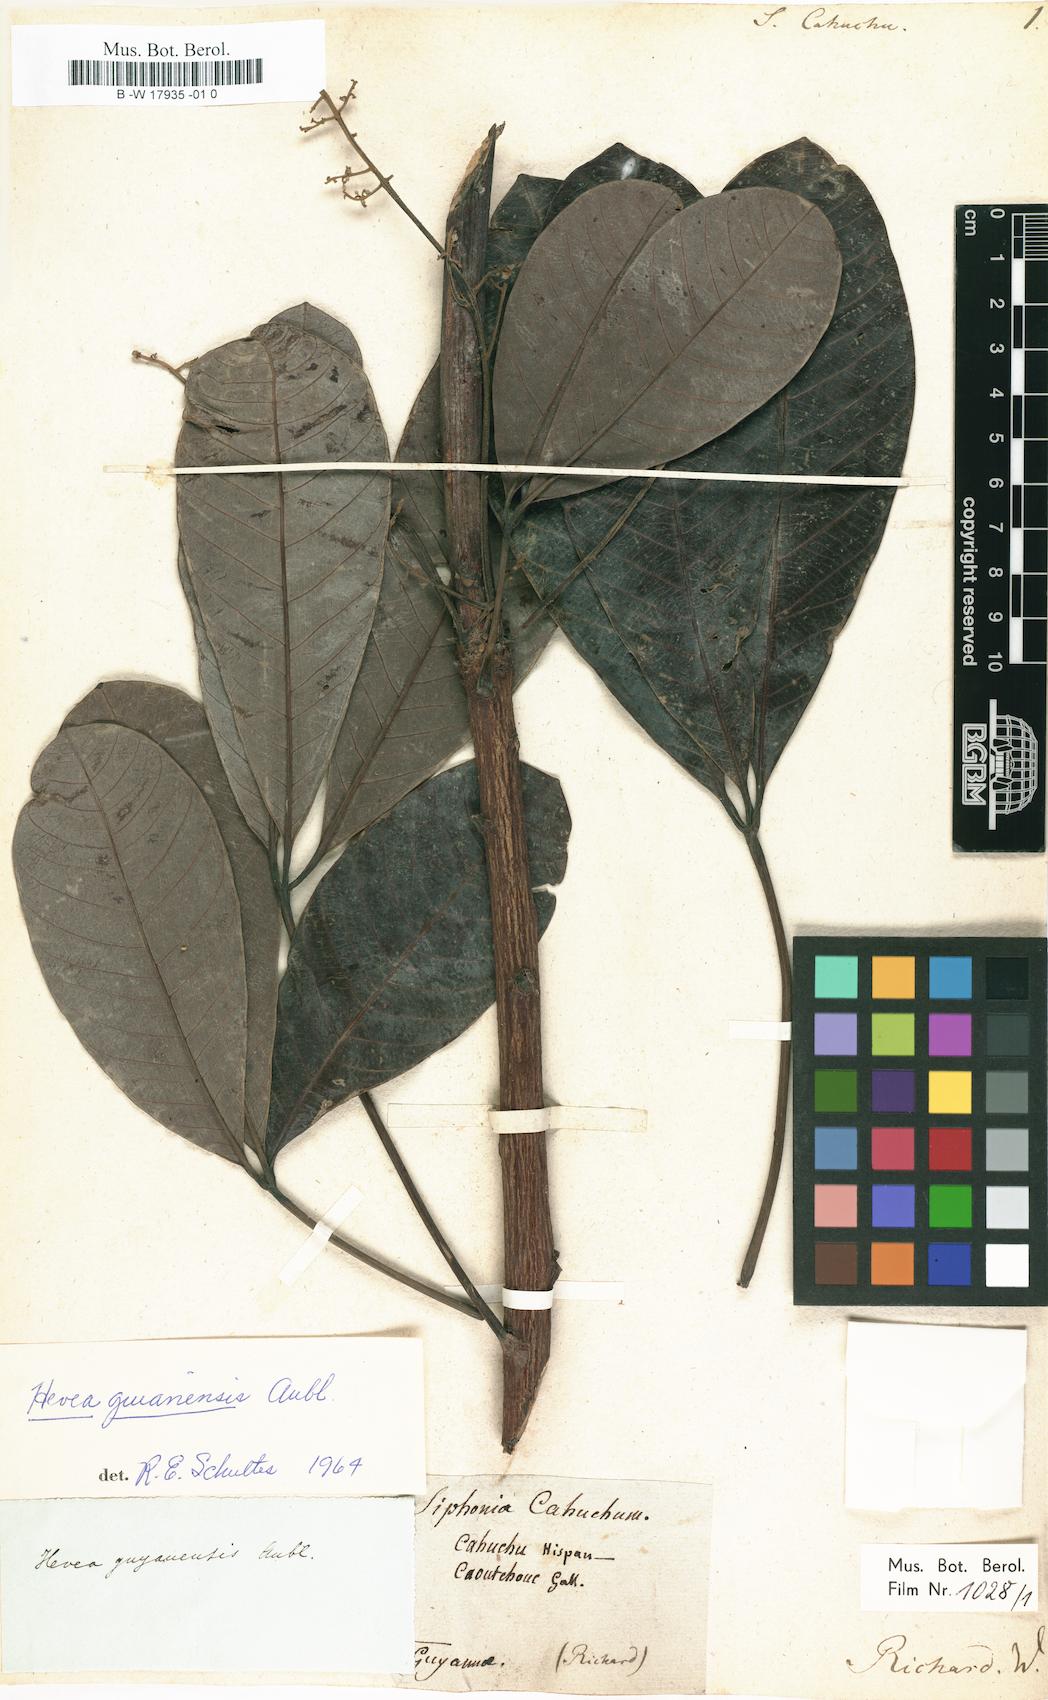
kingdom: Plantae
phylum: Tracheophyta
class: Magnoliopsida
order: Malpighiales
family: Euphorbiaceae
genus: Hevea
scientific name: Hevea guianensis
